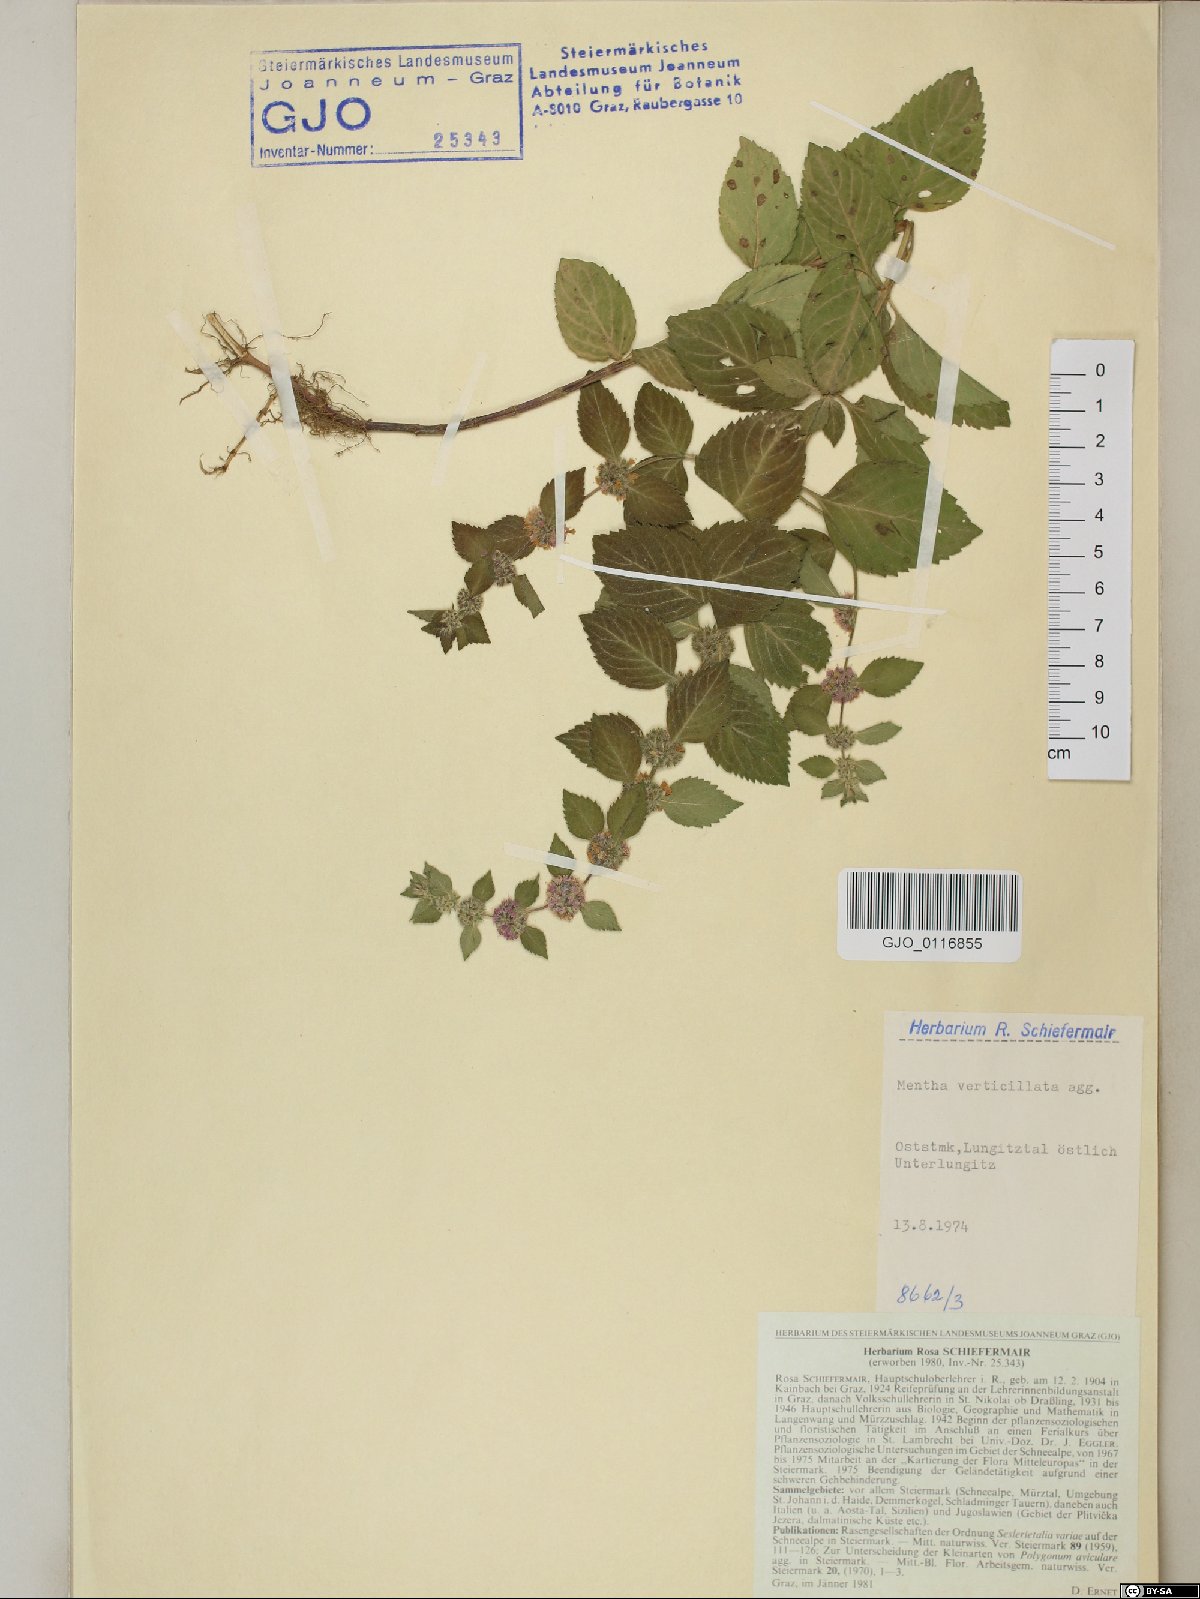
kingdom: Plantae
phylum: Tracheophyta
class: Magnoliopsida
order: Lamiales
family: Lamiaceae
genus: Mentha
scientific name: Mentha verticillata
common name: Mint
